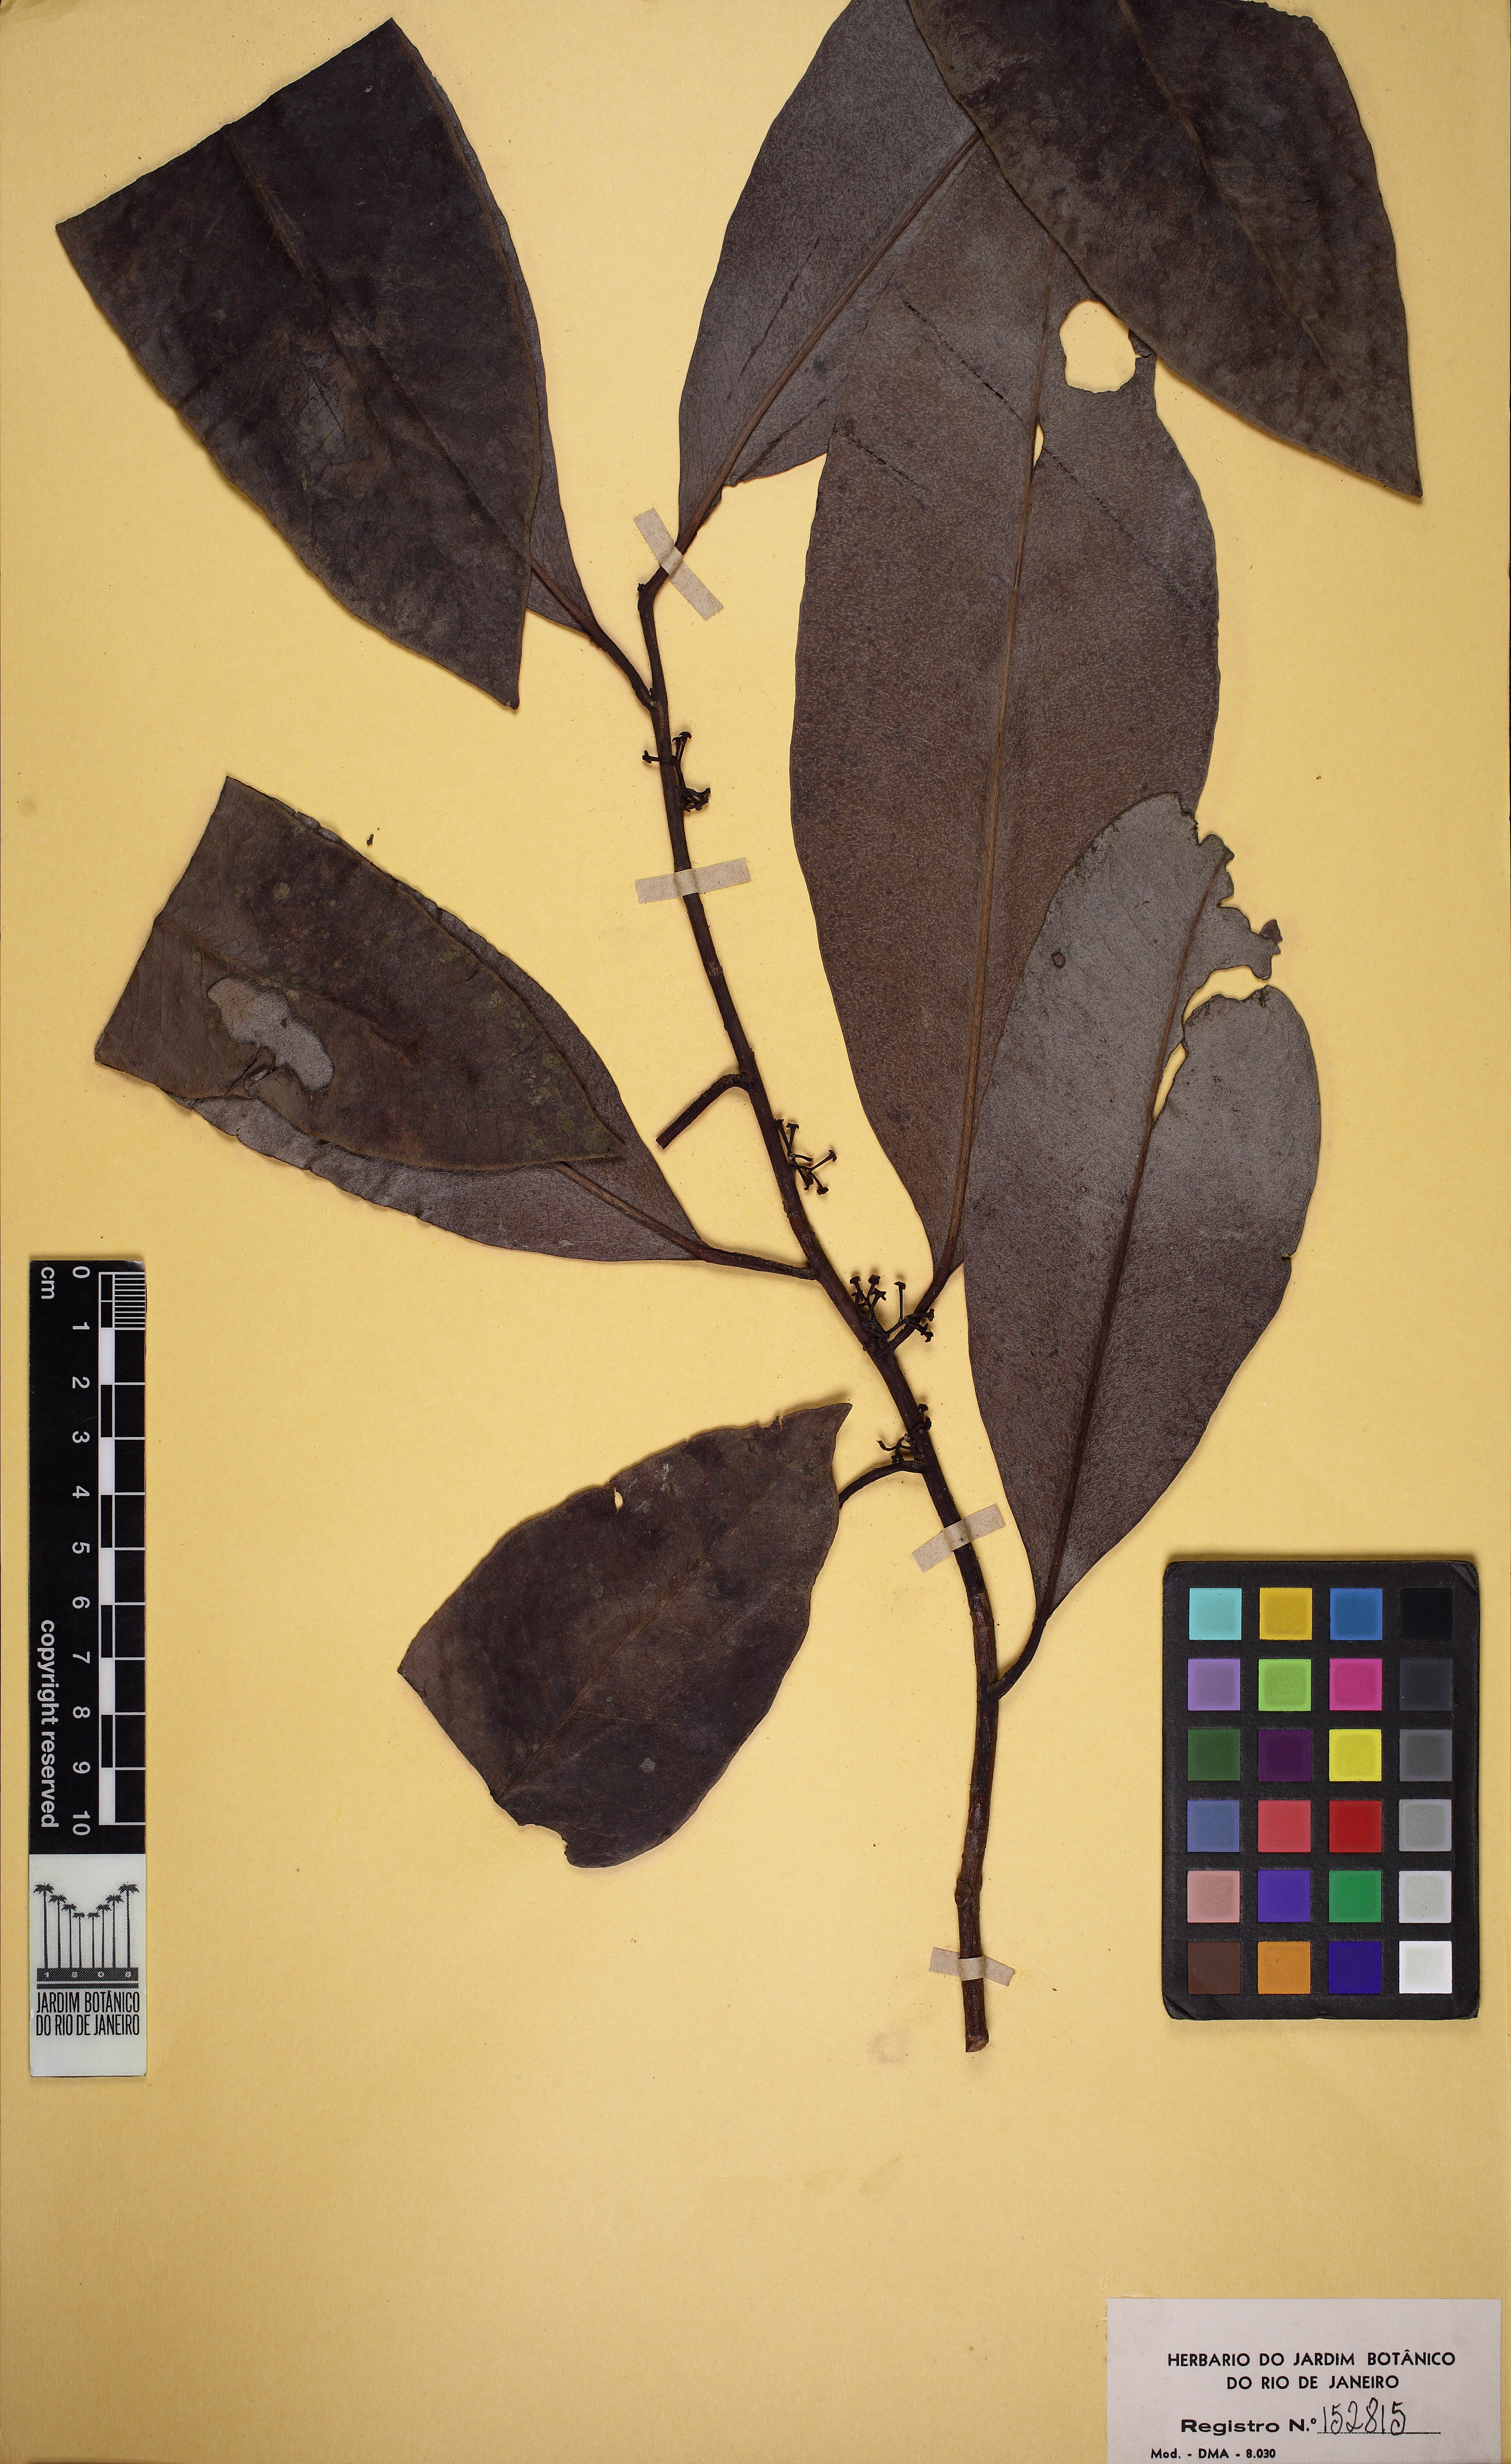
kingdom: Plantae
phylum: Tracheophyta
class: Magnoliopsida
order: Ericales
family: Primulaceae
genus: Stylogyne
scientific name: Stylogyne depauperata
